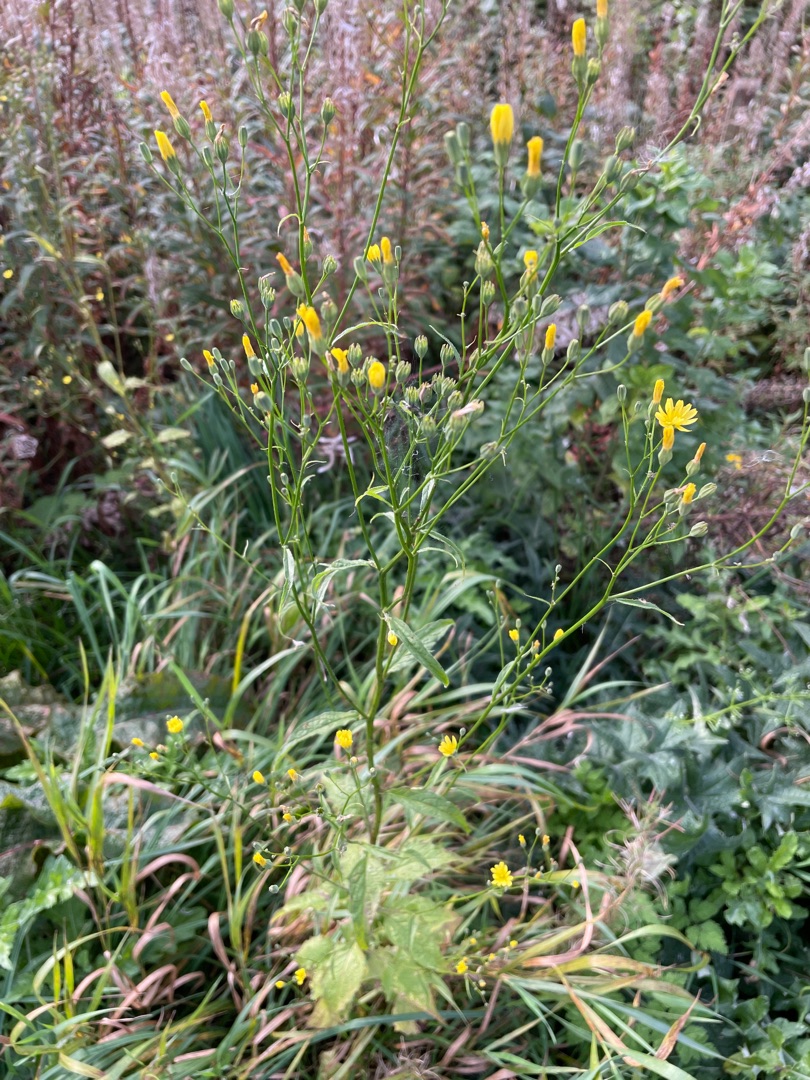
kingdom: Plantae
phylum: Tracheophyta
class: Magnoliopsida
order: Asterales
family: Asteraceae
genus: Lapsana
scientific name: Lapsana communis
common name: Haremad
